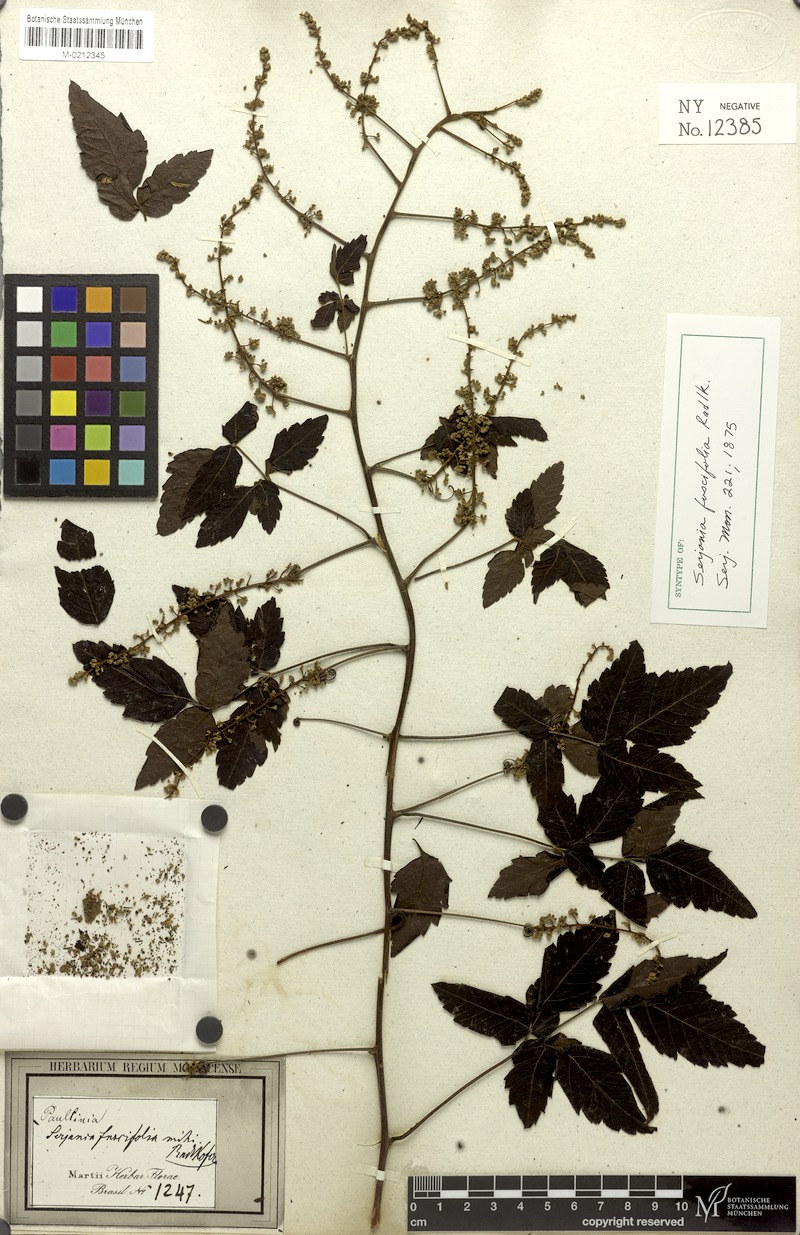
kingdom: Plantae
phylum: Tracheophyta
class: Magnoliopsida
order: Sapindales
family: Sapindaceae
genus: Serjania
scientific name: Serjania fuscifolia
